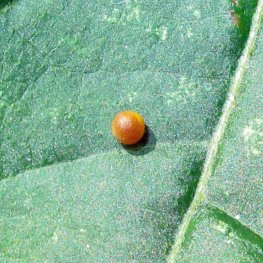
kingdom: Animalia
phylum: Arthropoda
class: Insecta
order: Lepidoptera
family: Papilionidae
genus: Papilio
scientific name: Papilio cresphontes
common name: Eastern Giant Swallowtail
